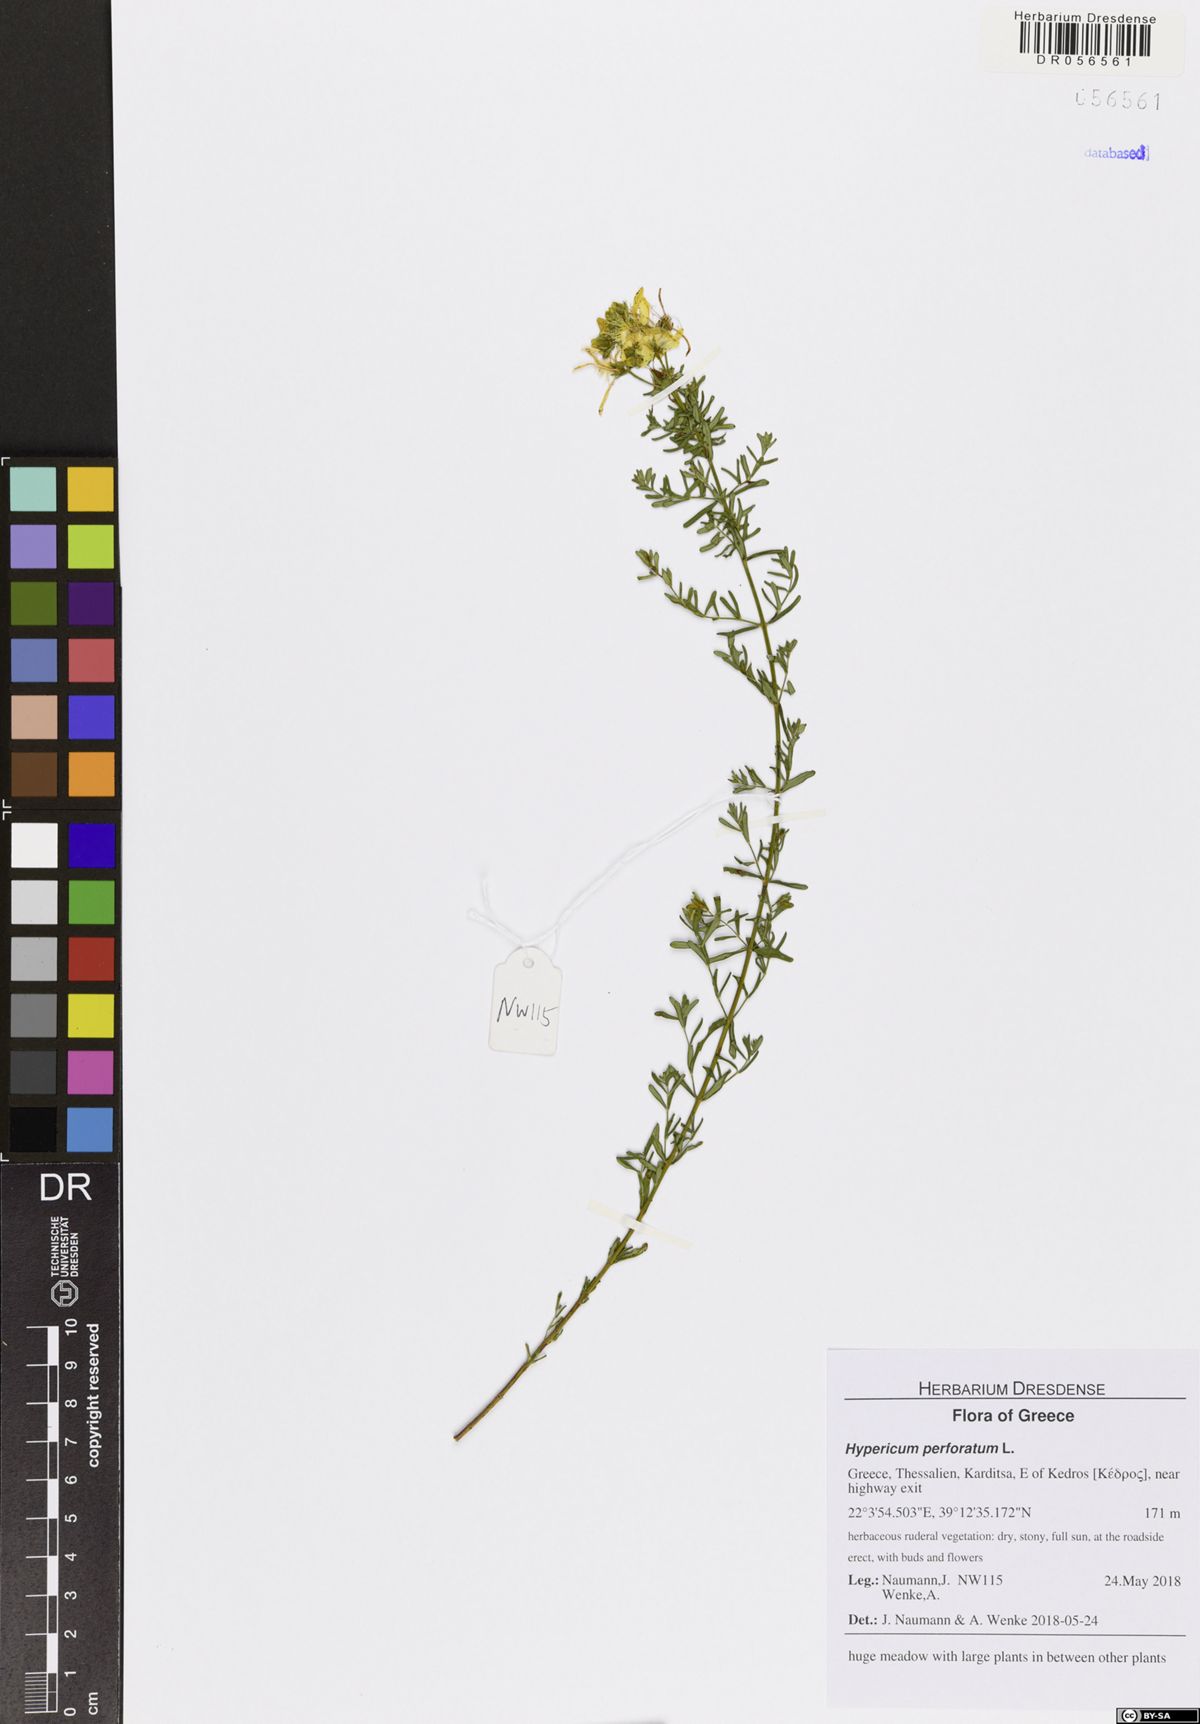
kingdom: Plantae
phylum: Tracheophyta
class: Magnoliopsida
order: Malpighiales
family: Hypericaceae
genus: Hypericum
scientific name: Hypericum perforatum
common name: Common st. johnswort
